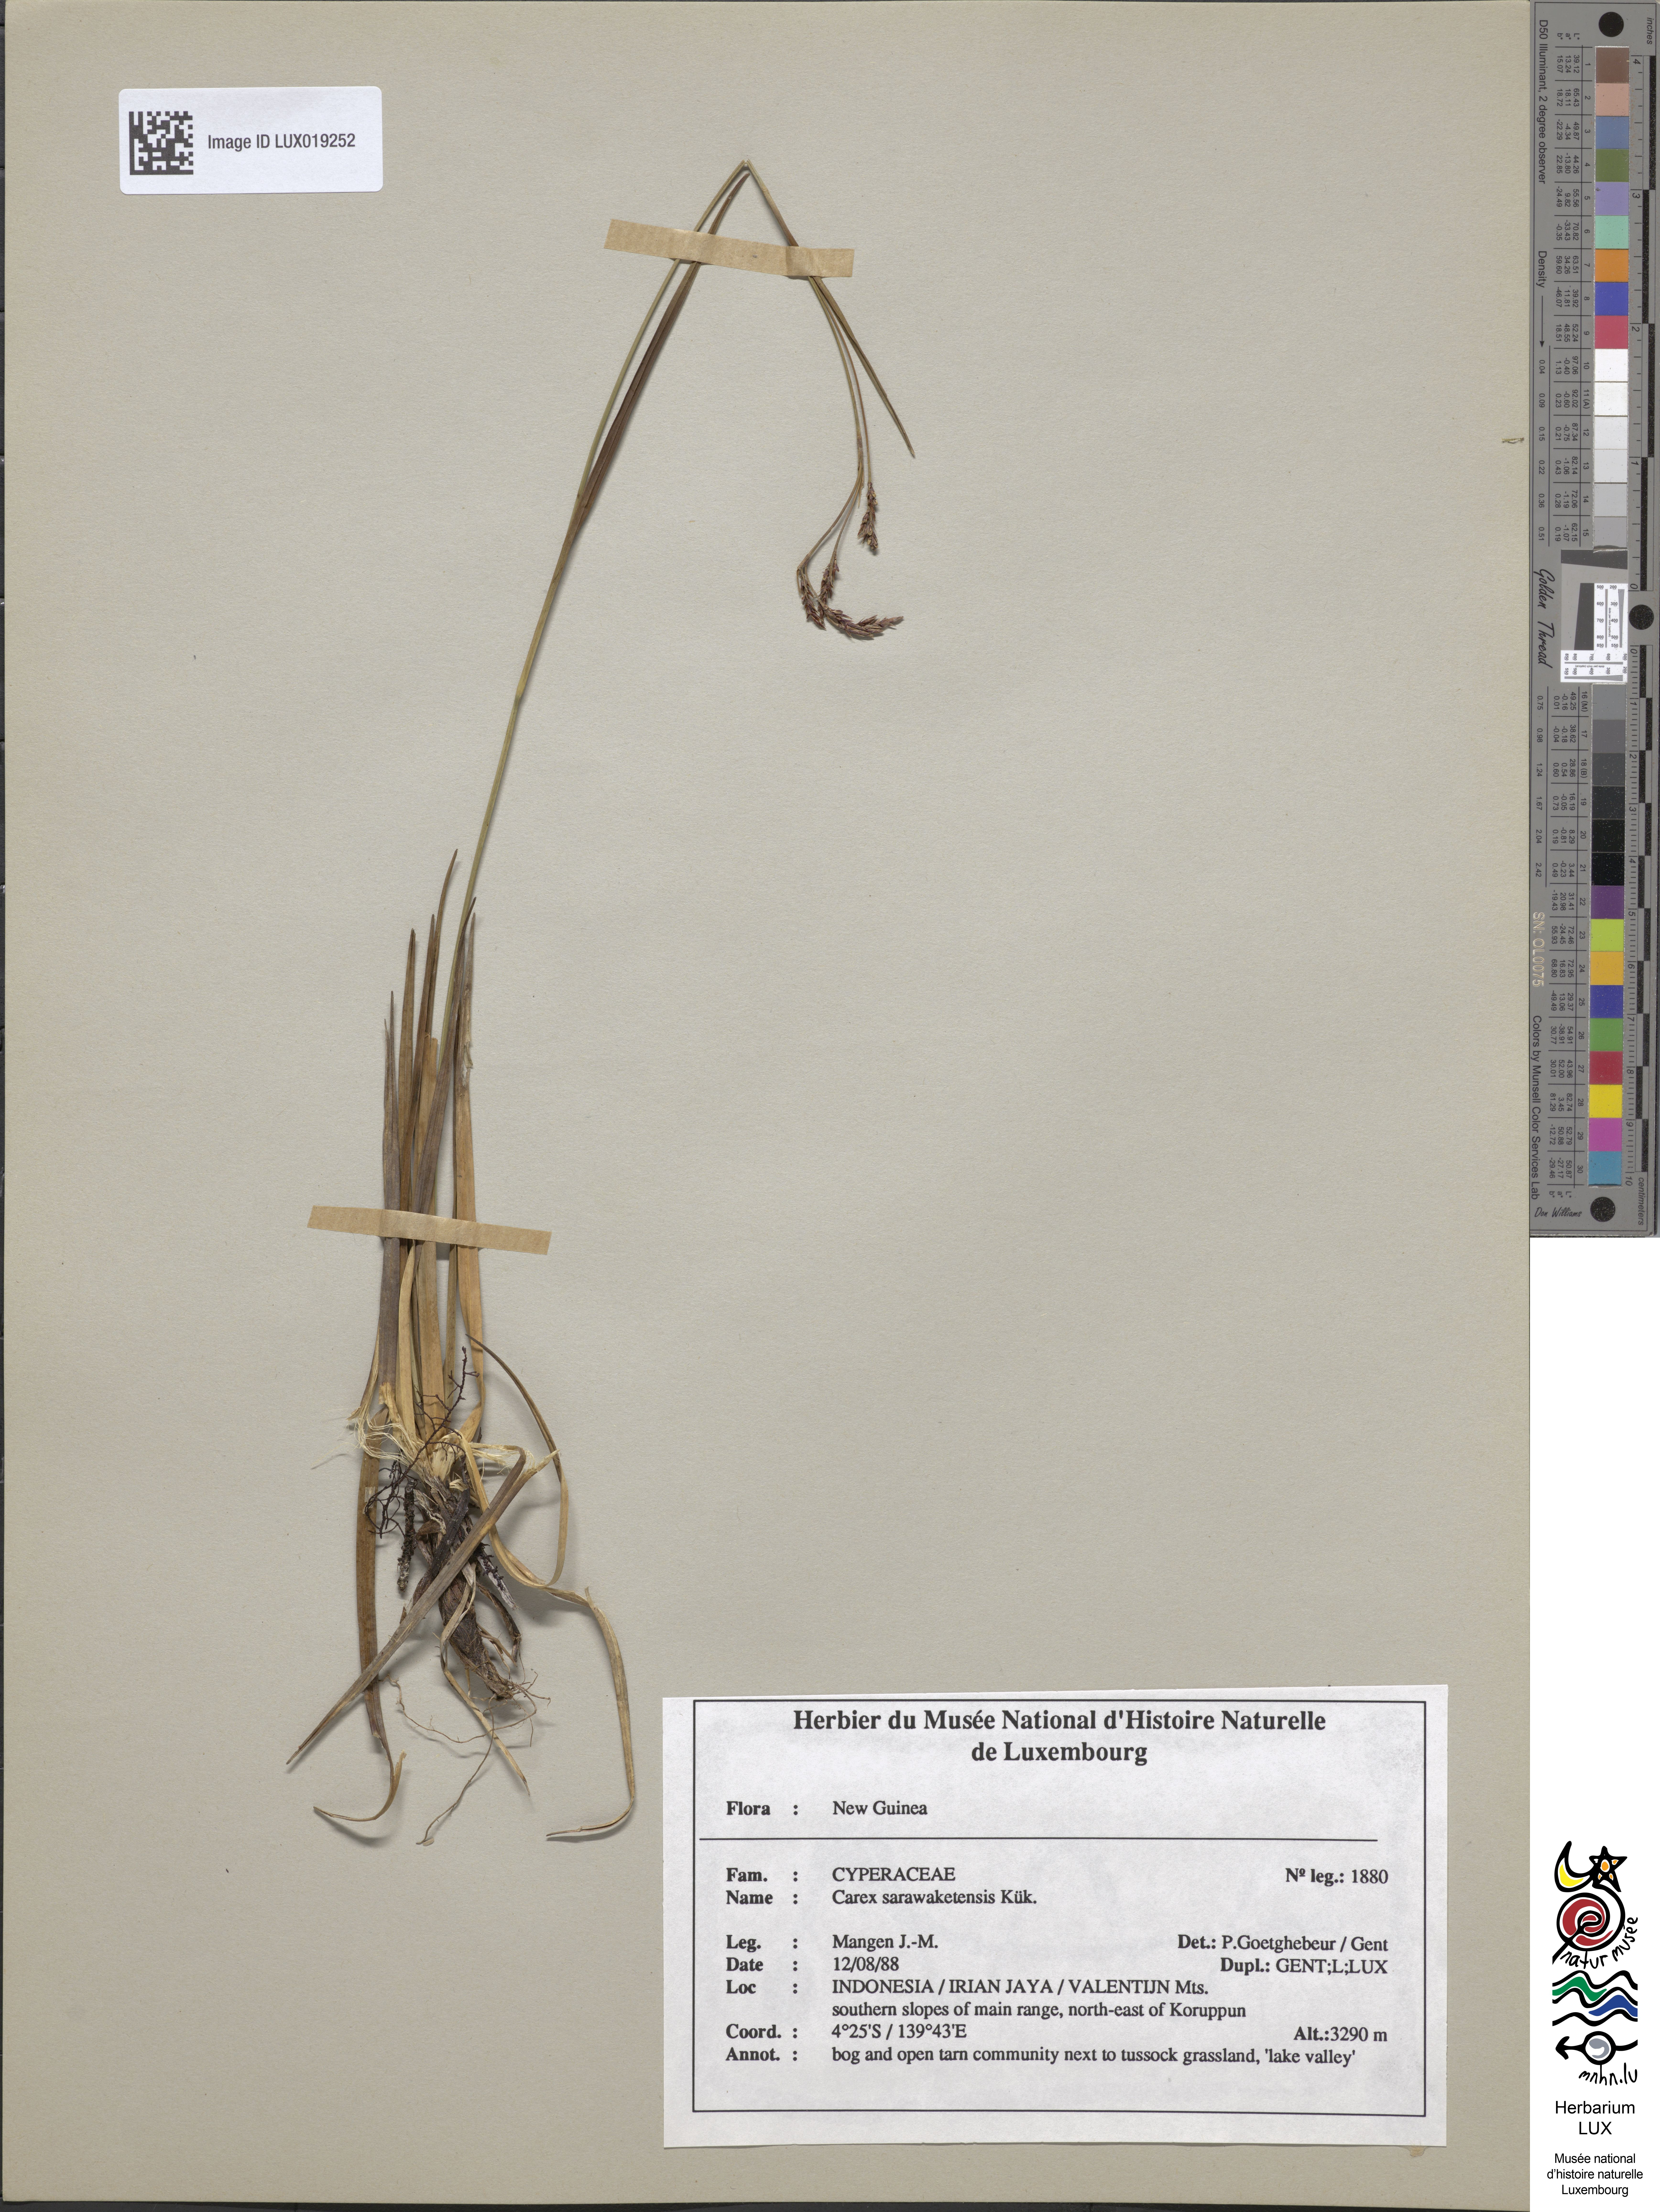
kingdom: Plantae
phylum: Tracheophyta
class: Liliopsida
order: Poales
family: Cyperaceae
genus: Carex
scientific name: Carex sarawaketensis
